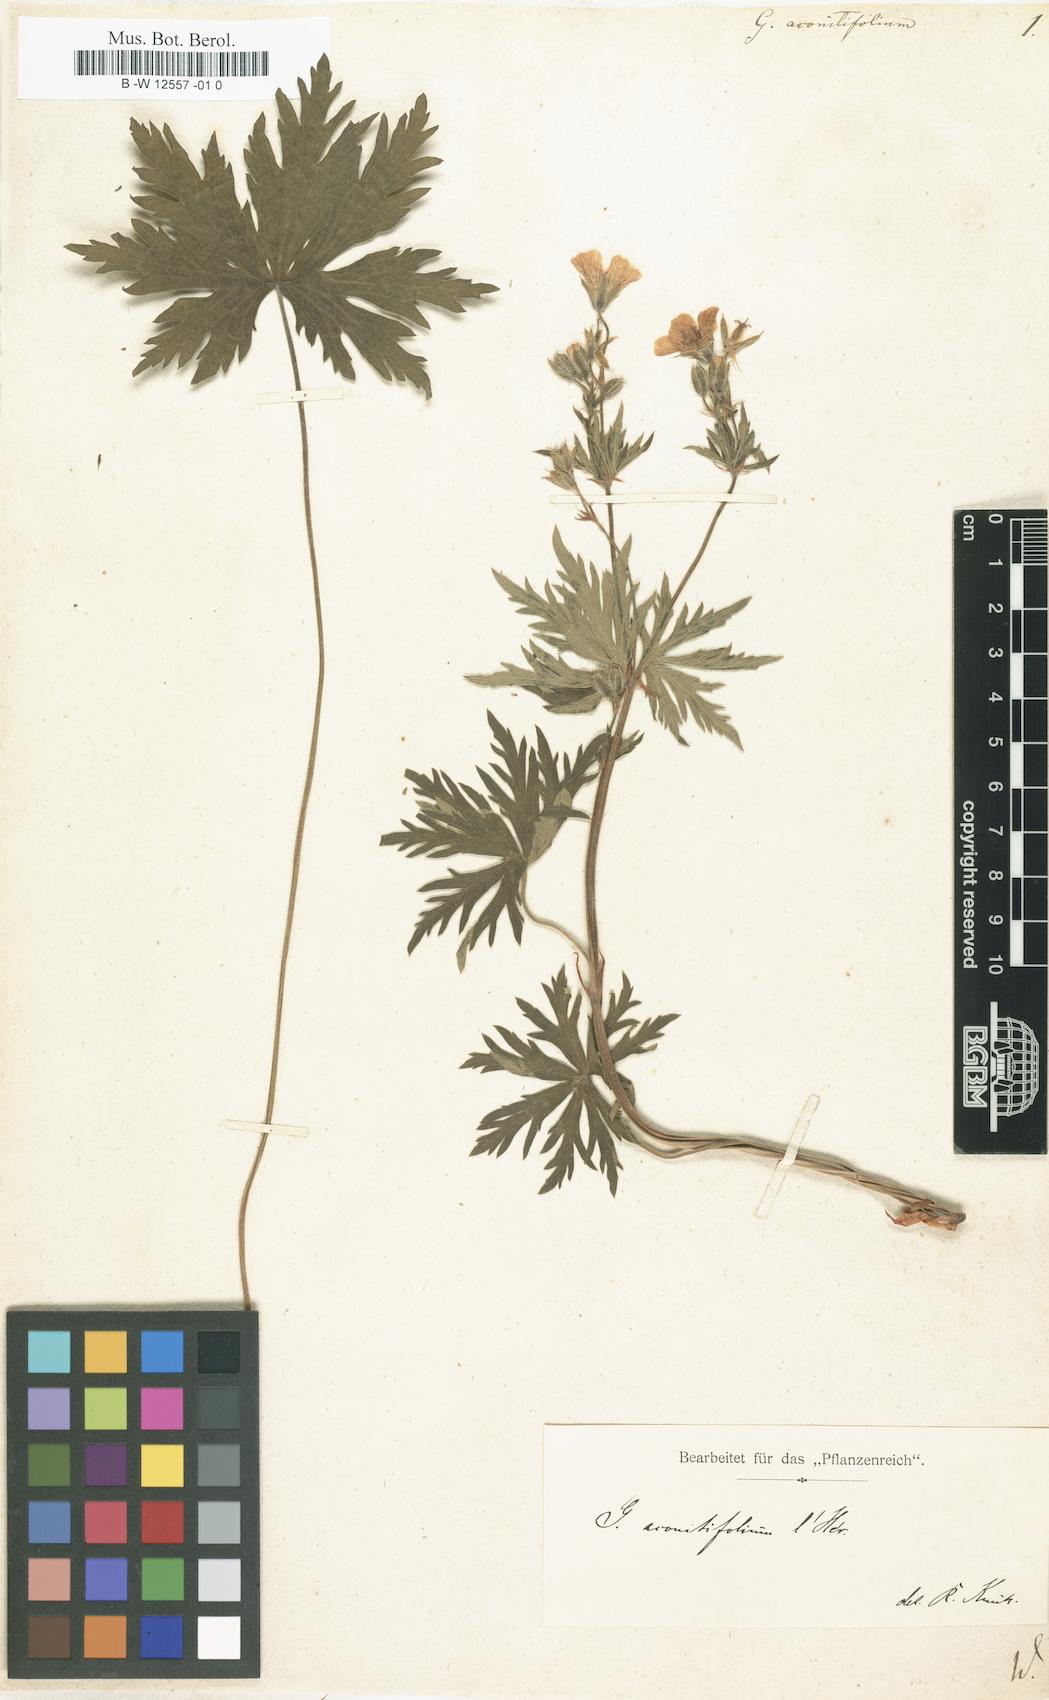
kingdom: Plantae
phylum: Tracheophyta
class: Magnoliopsida
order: Geraniales
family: Geraniaceae
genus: Geranium
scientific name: Geranium aconitifolium
